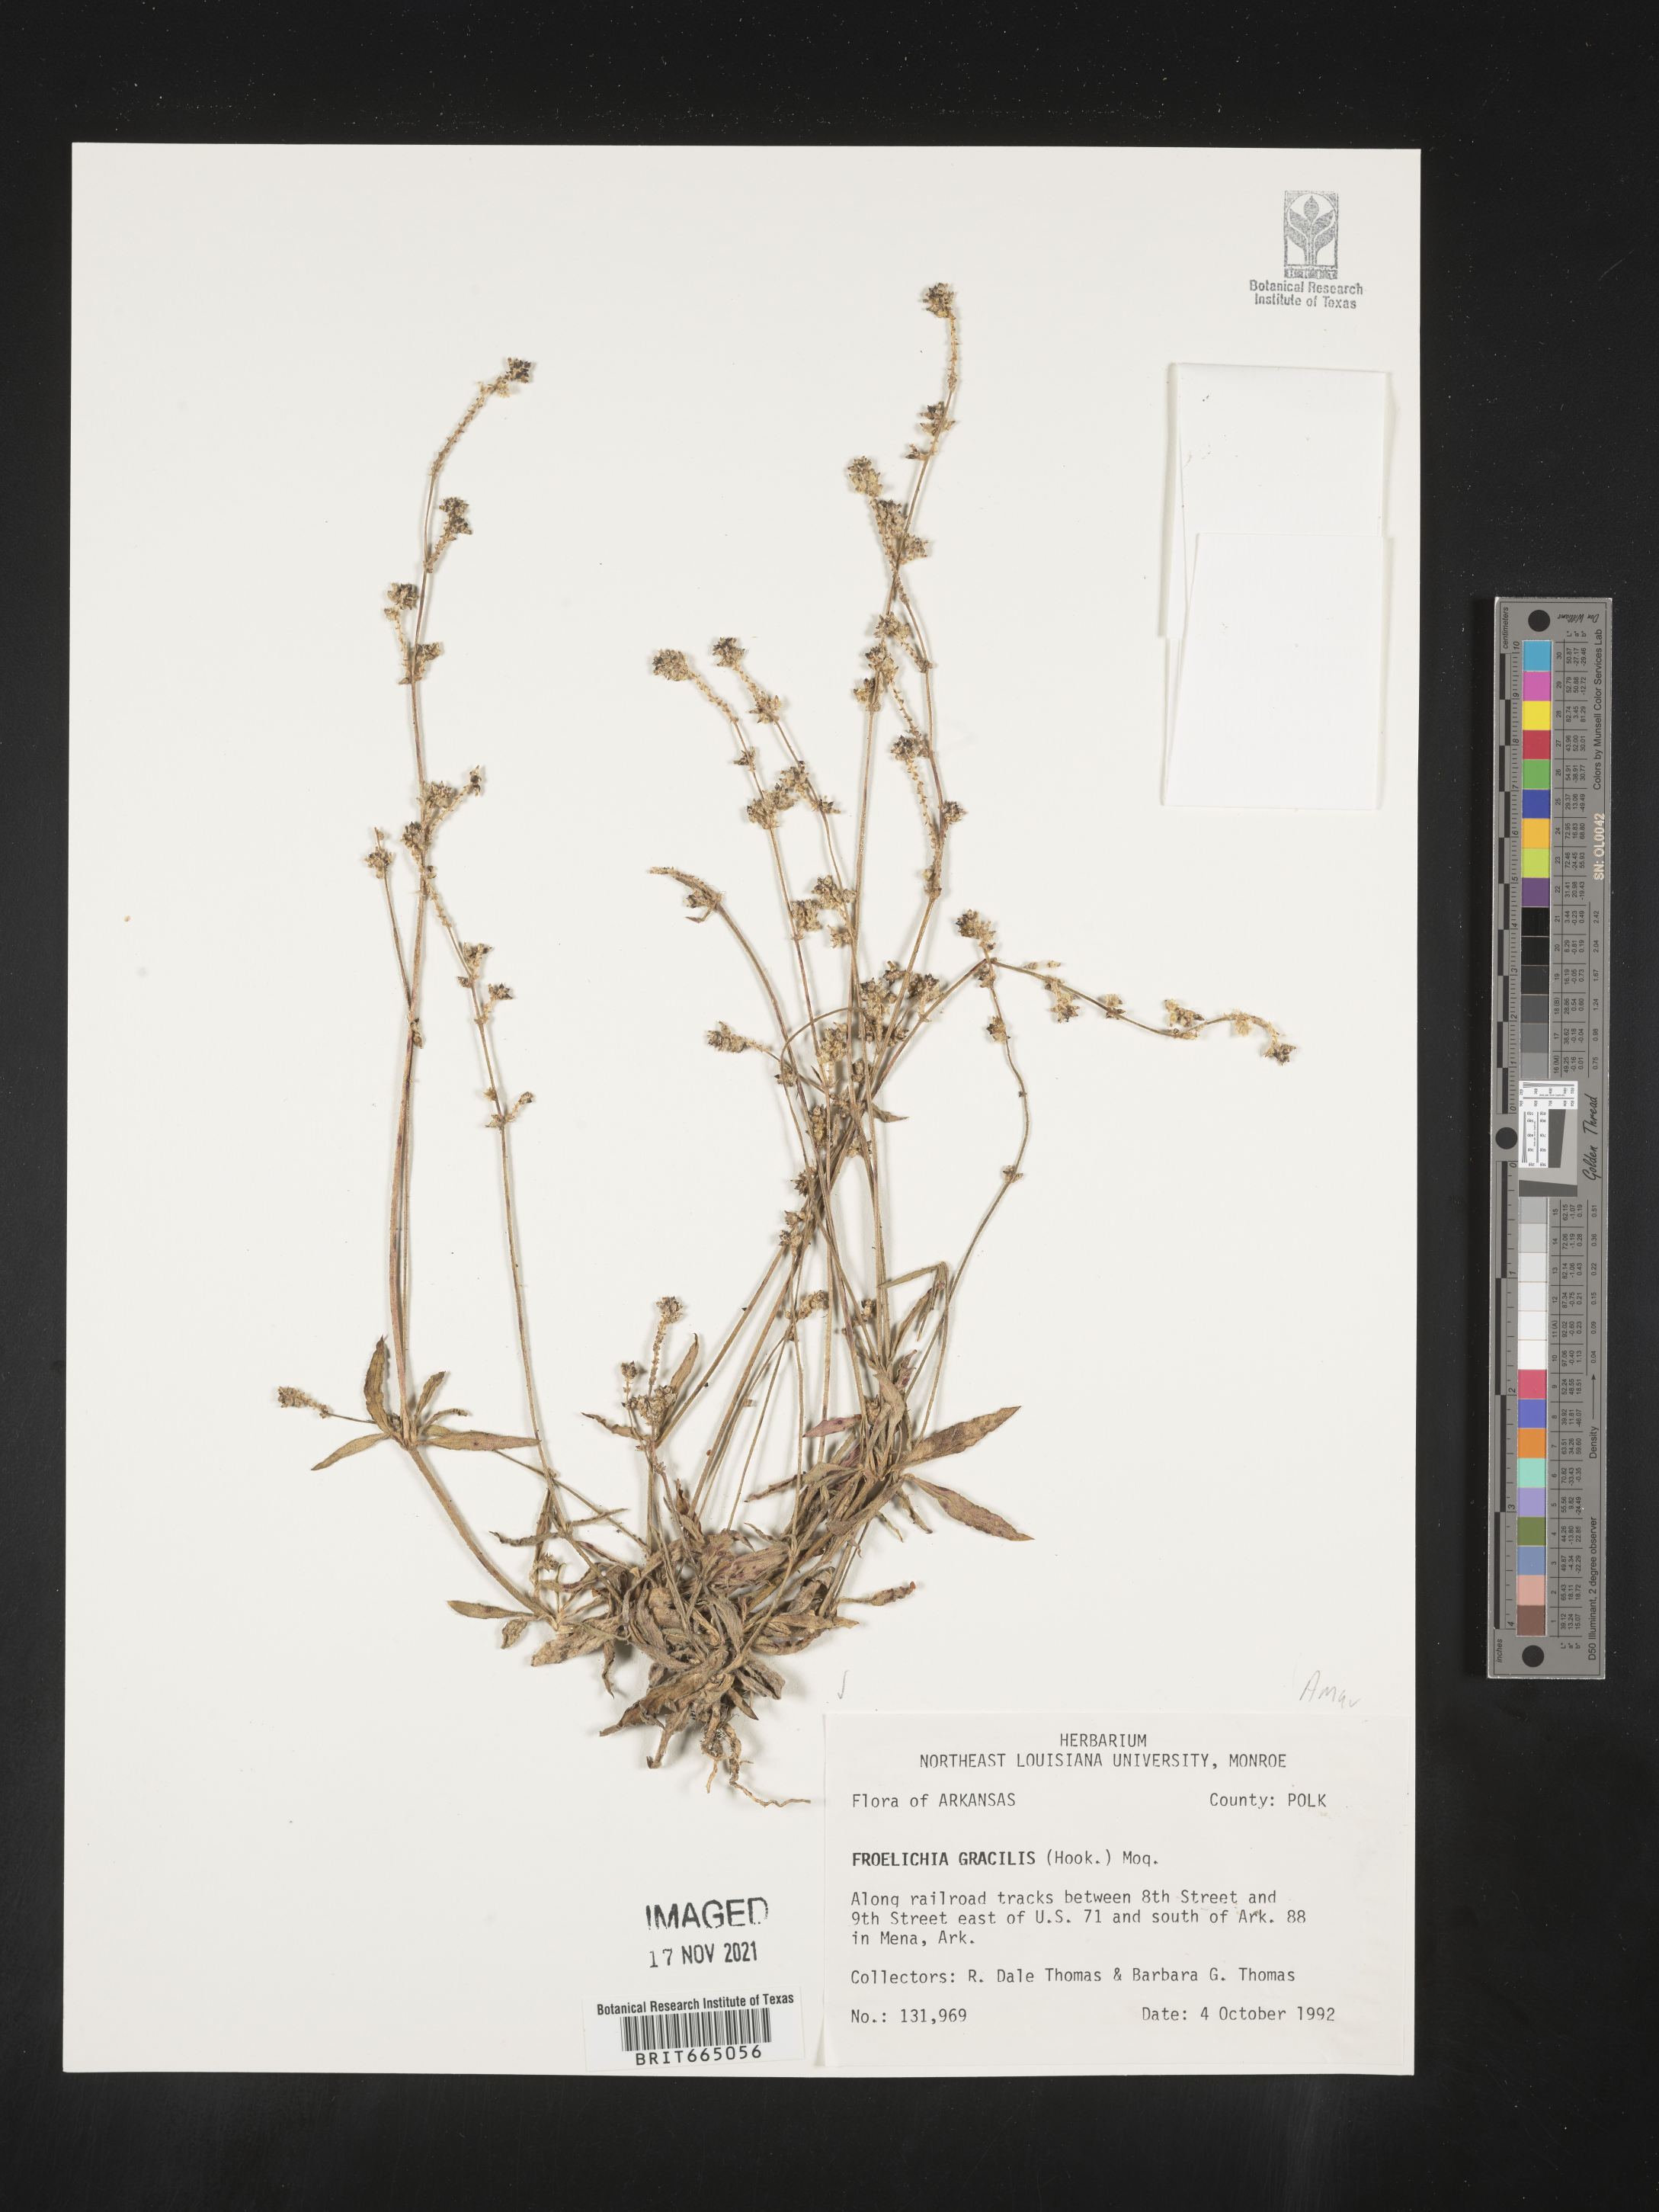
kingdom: Plantae
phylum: Tracheophyta
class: Magnoliopsida
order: Caryophyllales
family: Amaranthaceae
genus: Froelichia
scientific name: Froelichia gracilis
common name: Slender cottonweed
